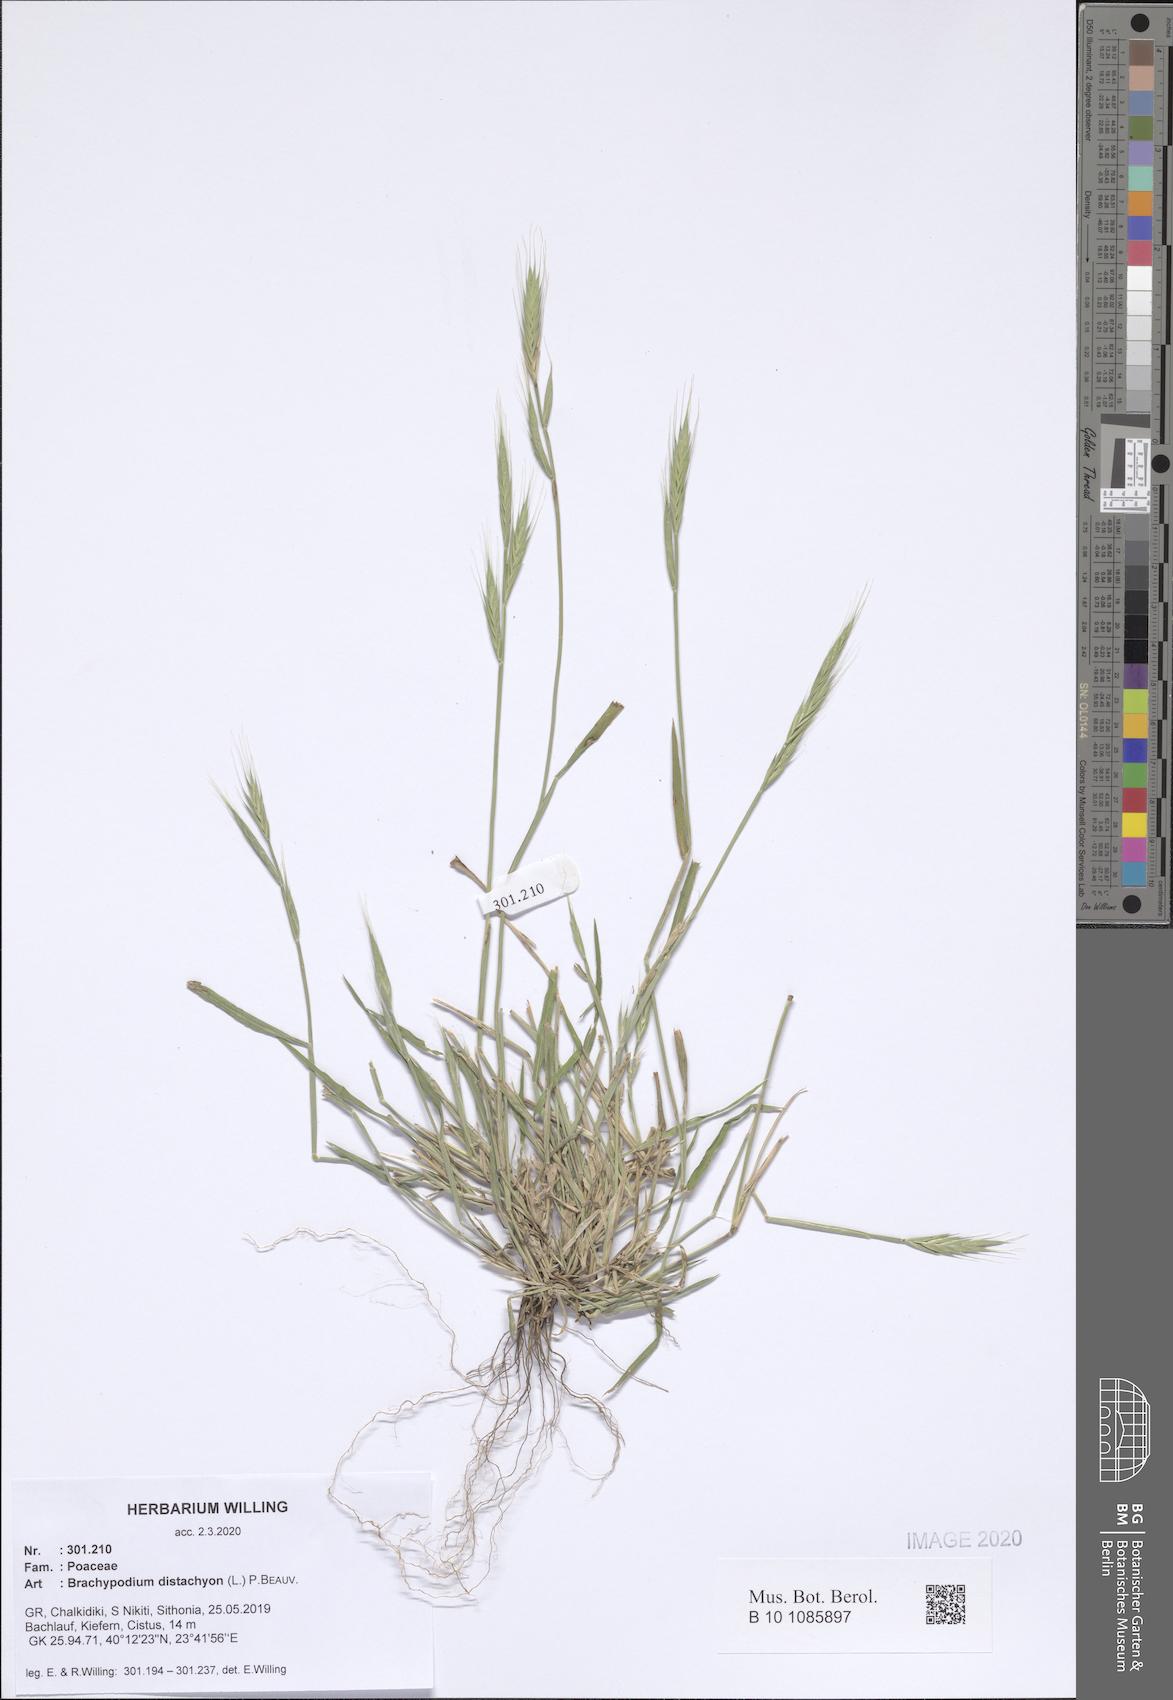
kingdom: Plantae
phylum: Tracheophyta
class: Liliopsida
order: Poales
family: Poaceae
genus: Brachypodium
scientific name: Brachypodium distachyon
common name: Stiff brome
